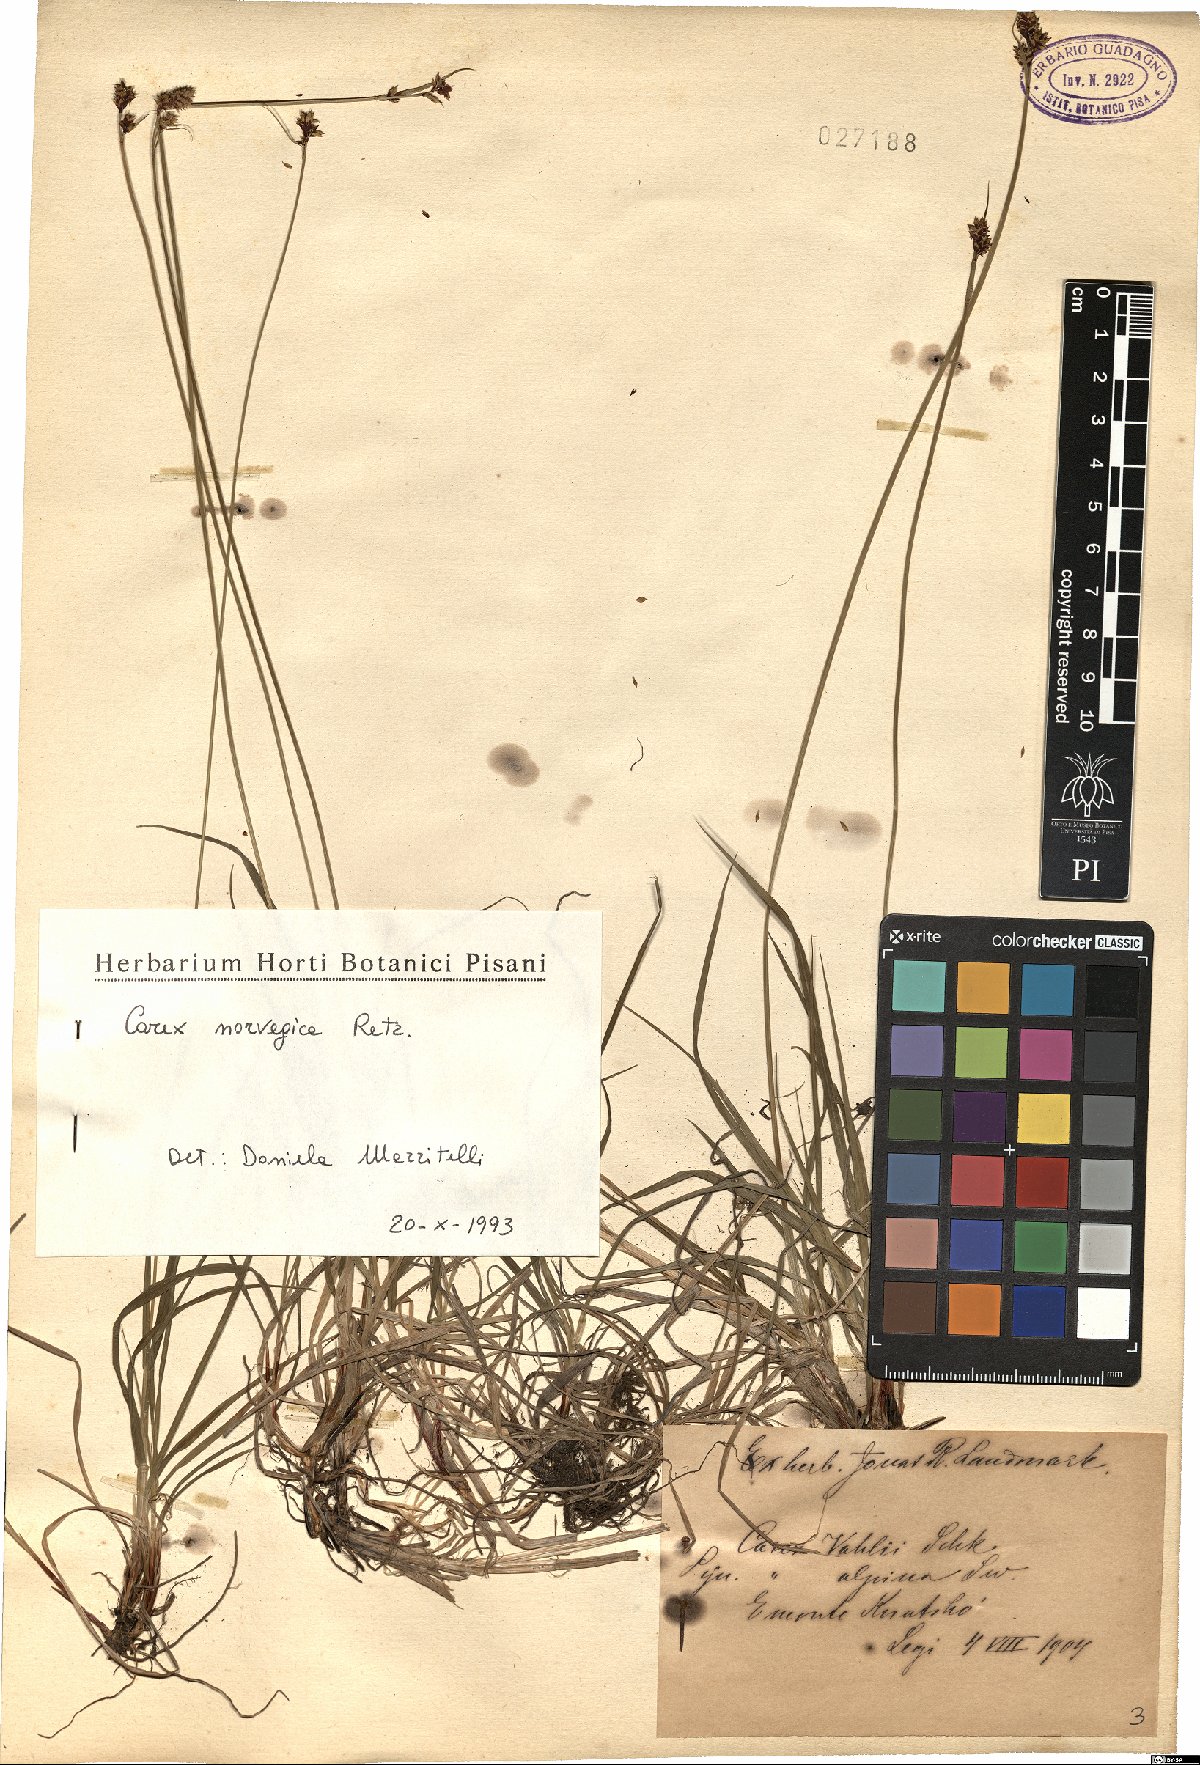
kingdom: Plantae
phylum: Tracheophyta
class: Liliopsida
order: Poales
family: Cyperaceae
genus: Carex
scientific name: Carex norvegica
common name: Close-headed alpine-sedge
